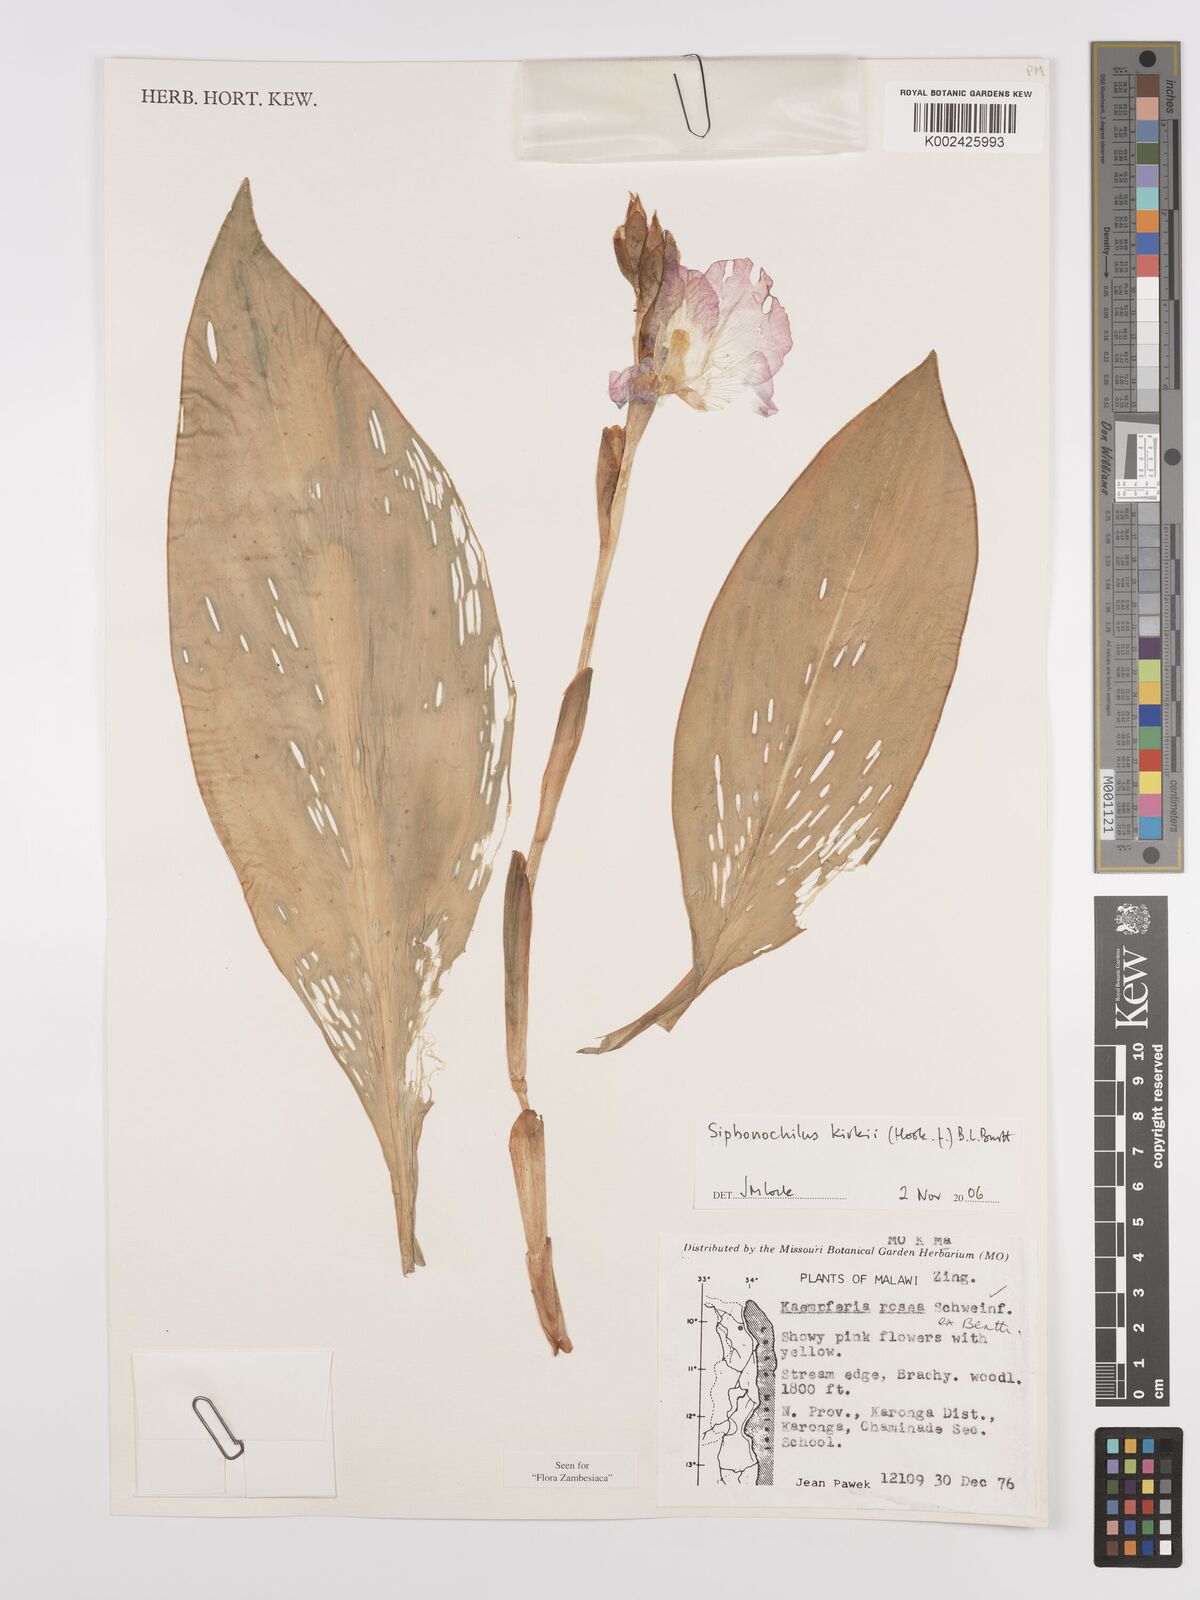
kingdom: Plantae
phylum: Tracheophyta
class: Liliopsida
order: Zingiberales
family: Zingiberaceae
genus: Siphonochilus
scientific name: Siphonochilus kirkii
